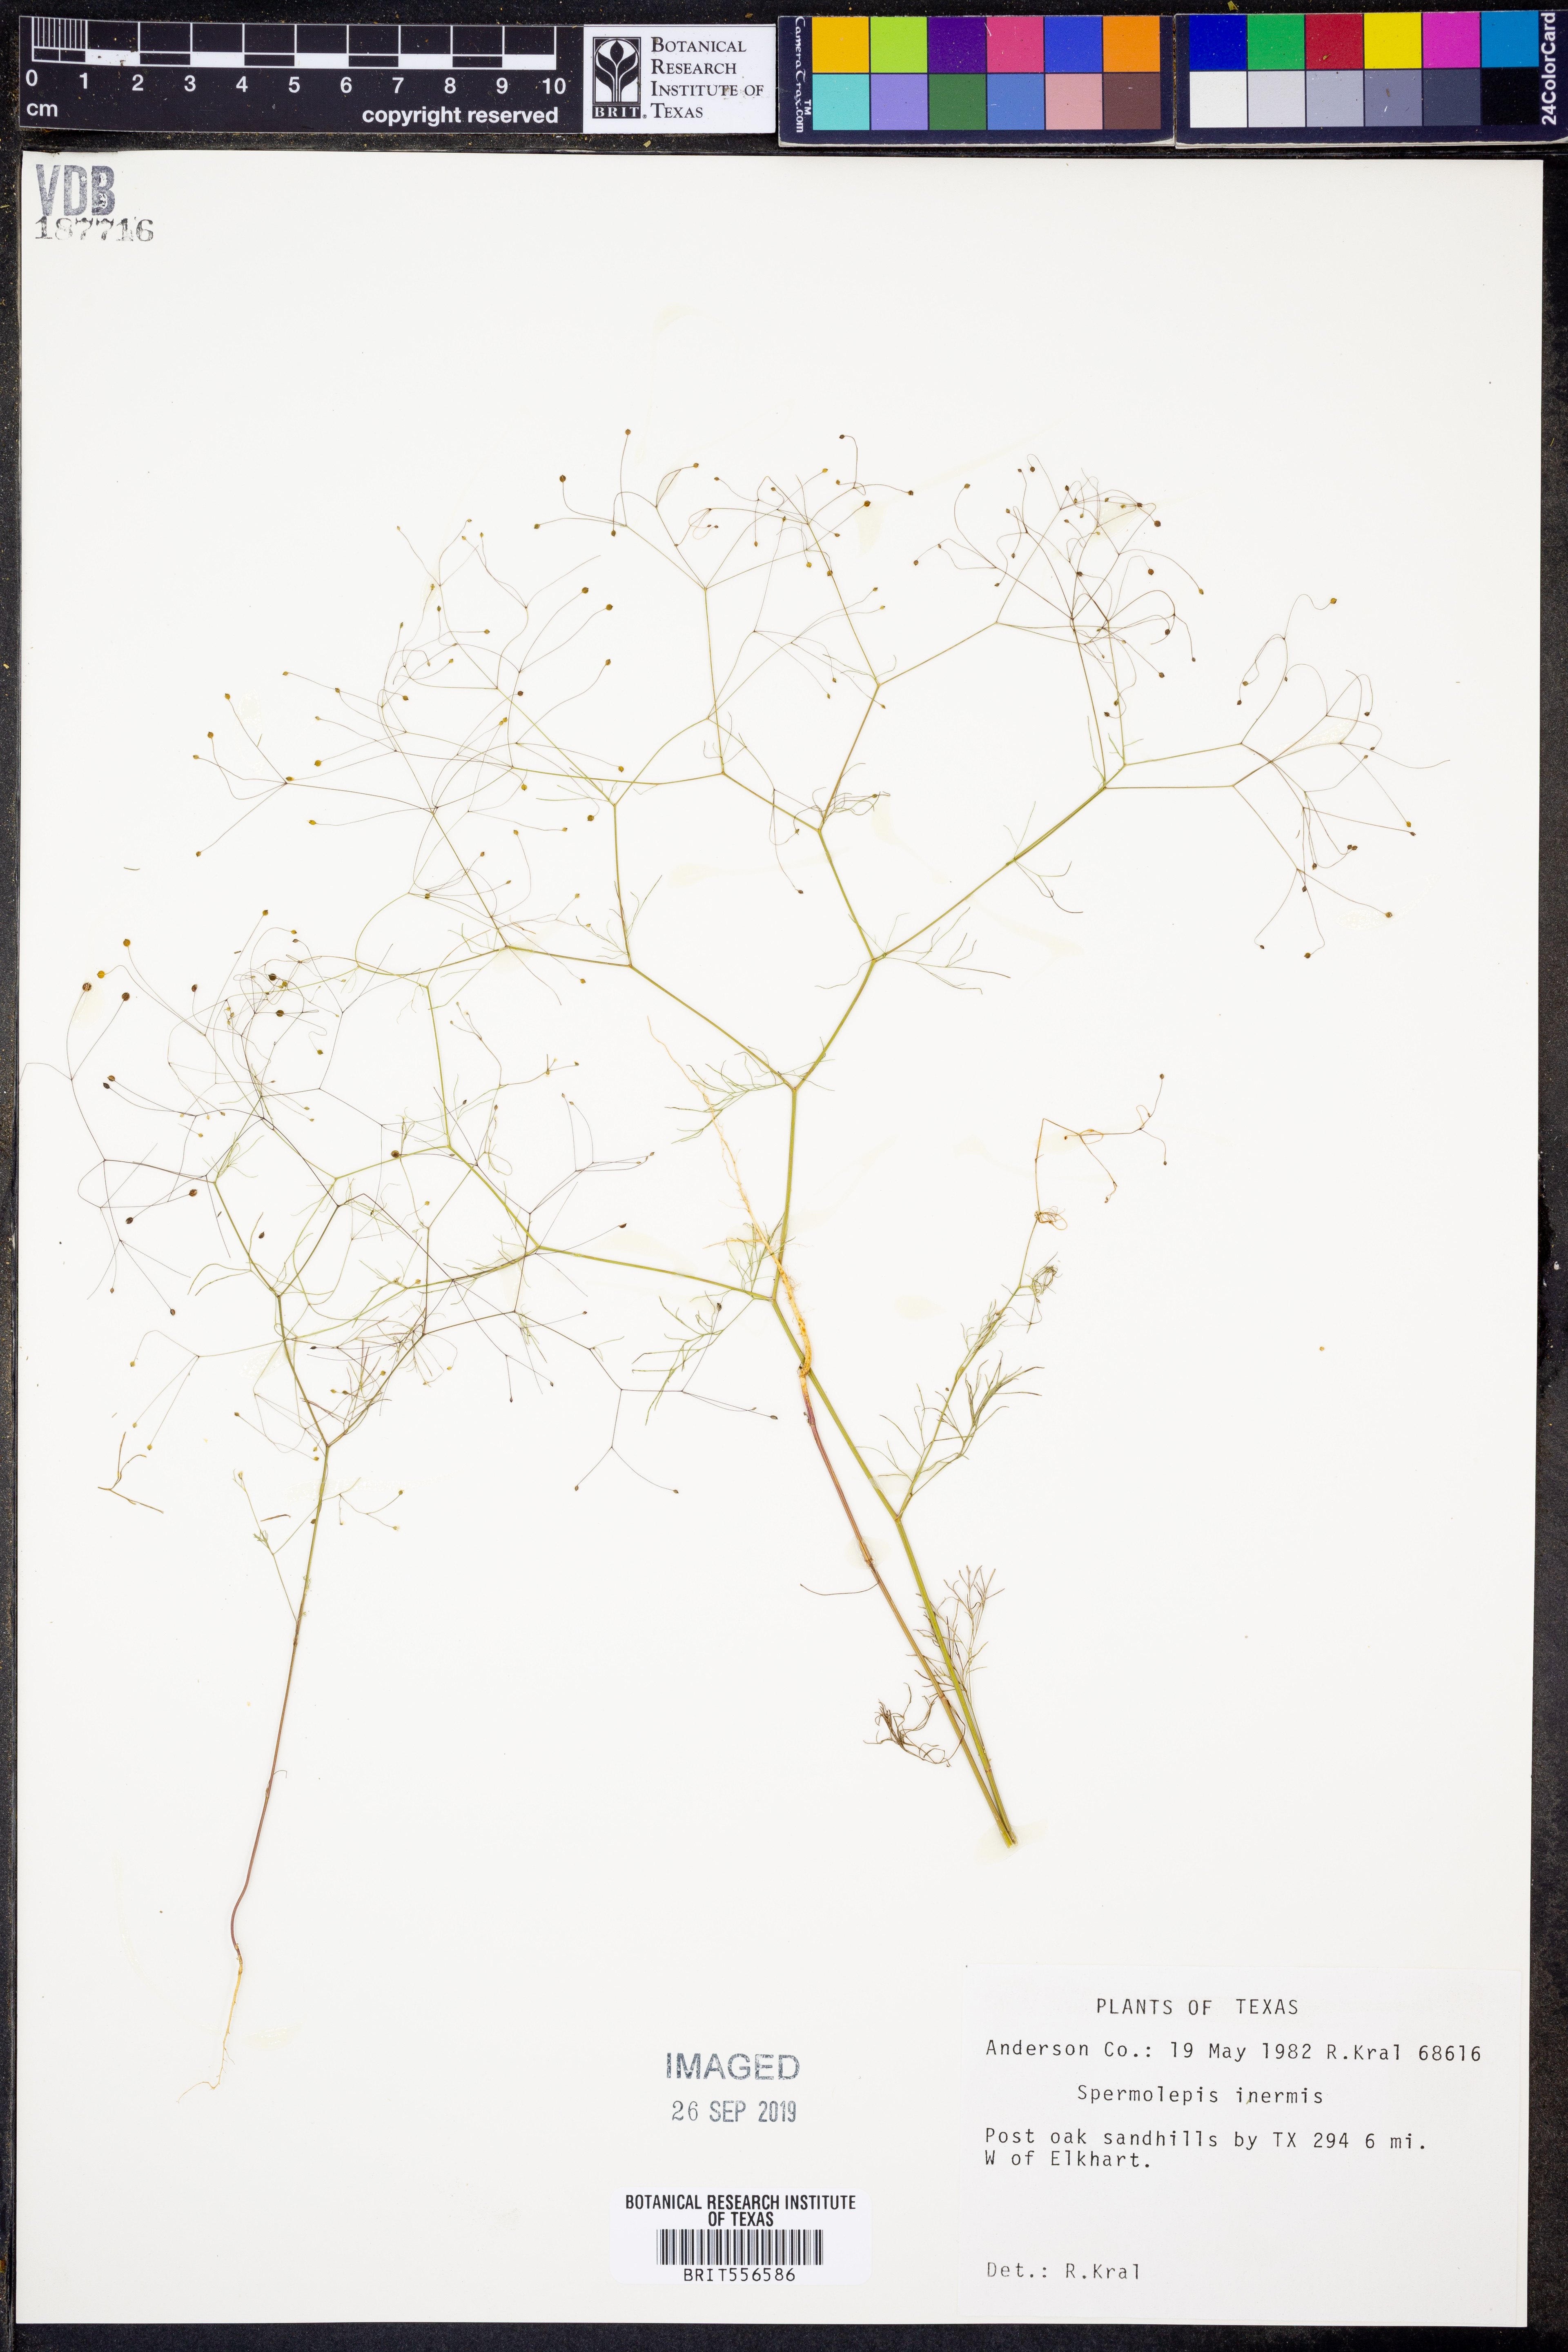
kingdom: Plantae
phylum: Tracheophyta
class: Magnoliopsida
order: Apiales
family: Apiaceae
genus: Spermolepis
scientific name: Spermolepis inermis
